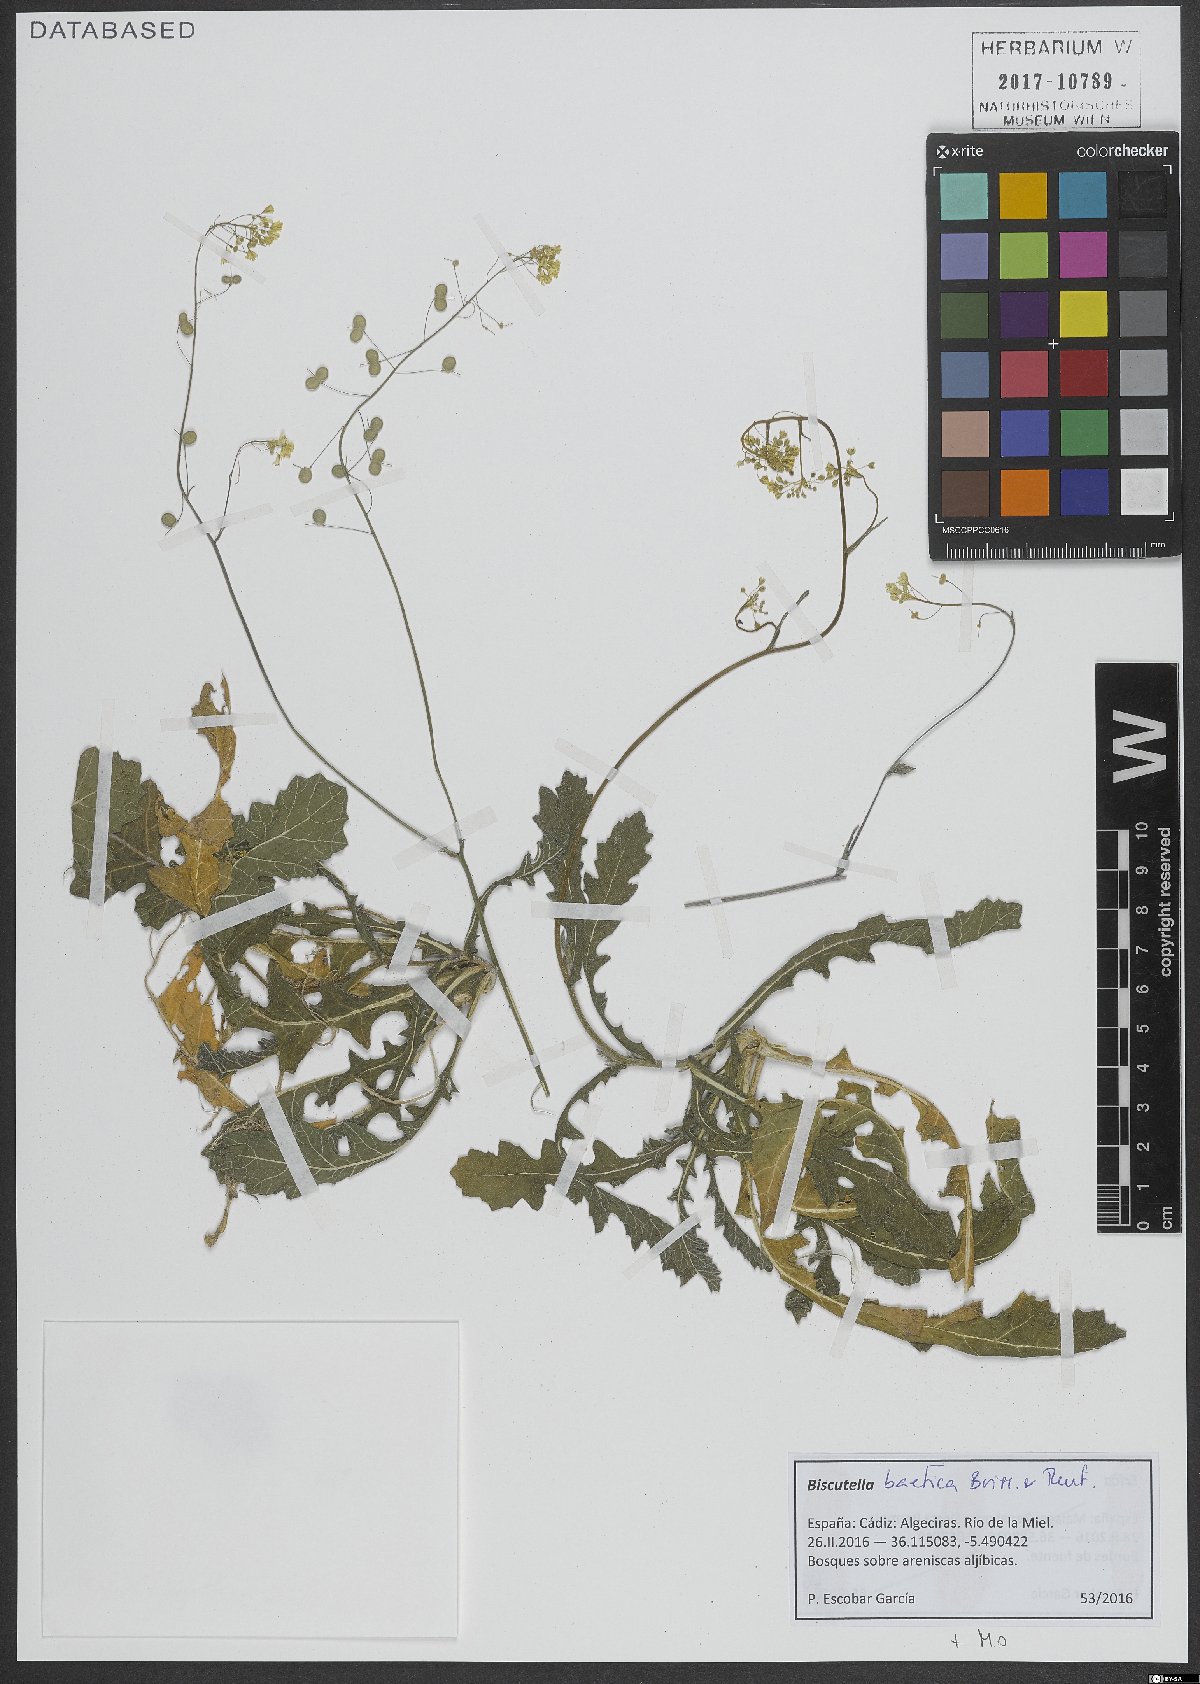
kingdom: Plantae
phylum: Tracheophyta
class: Magnoliopsida
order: Brassicales
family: Brassicaceae
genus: Biscutella
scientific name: Biscutella baetica
